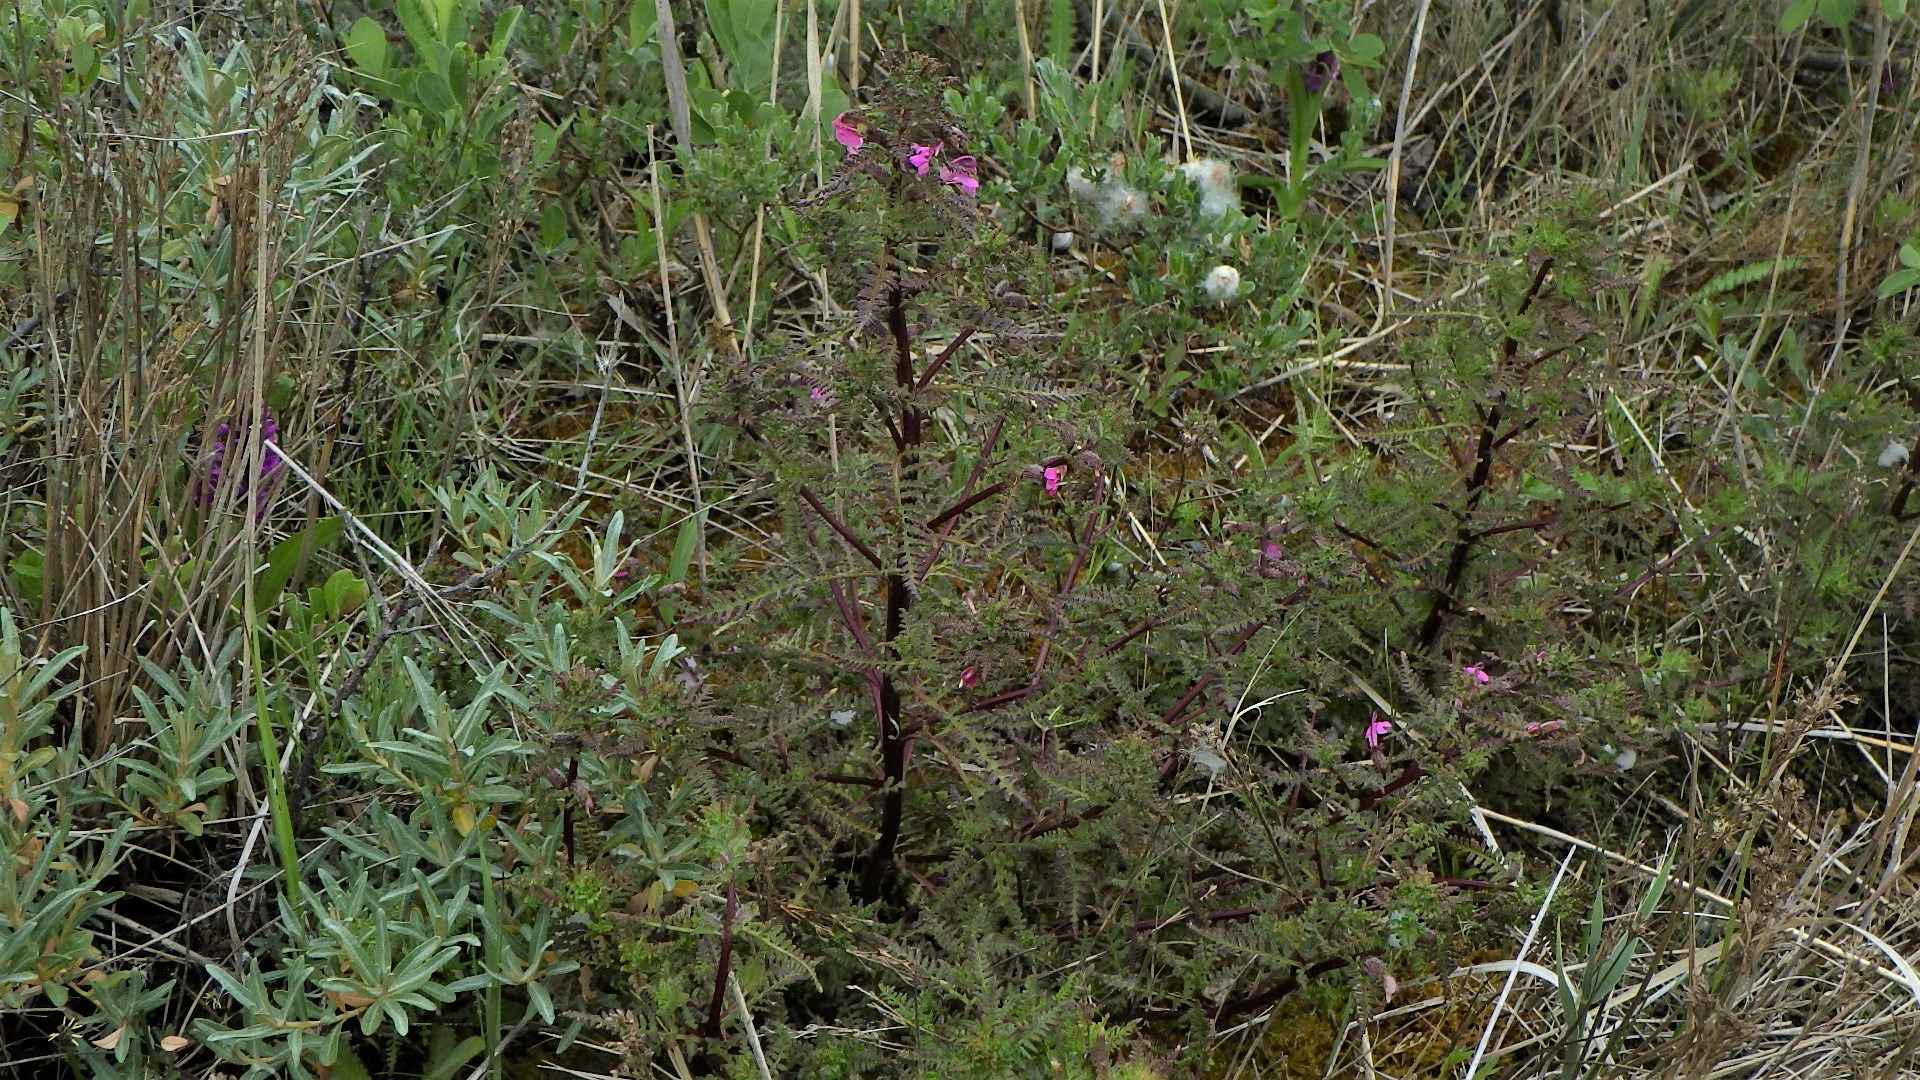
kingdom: Plantae
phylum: Tracheophyta
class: Magnoliopsida
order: Lamiales
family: Orobanchaceae
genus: Pedicularis
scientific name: Pedicularis palustris
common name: Eng-troldurt
